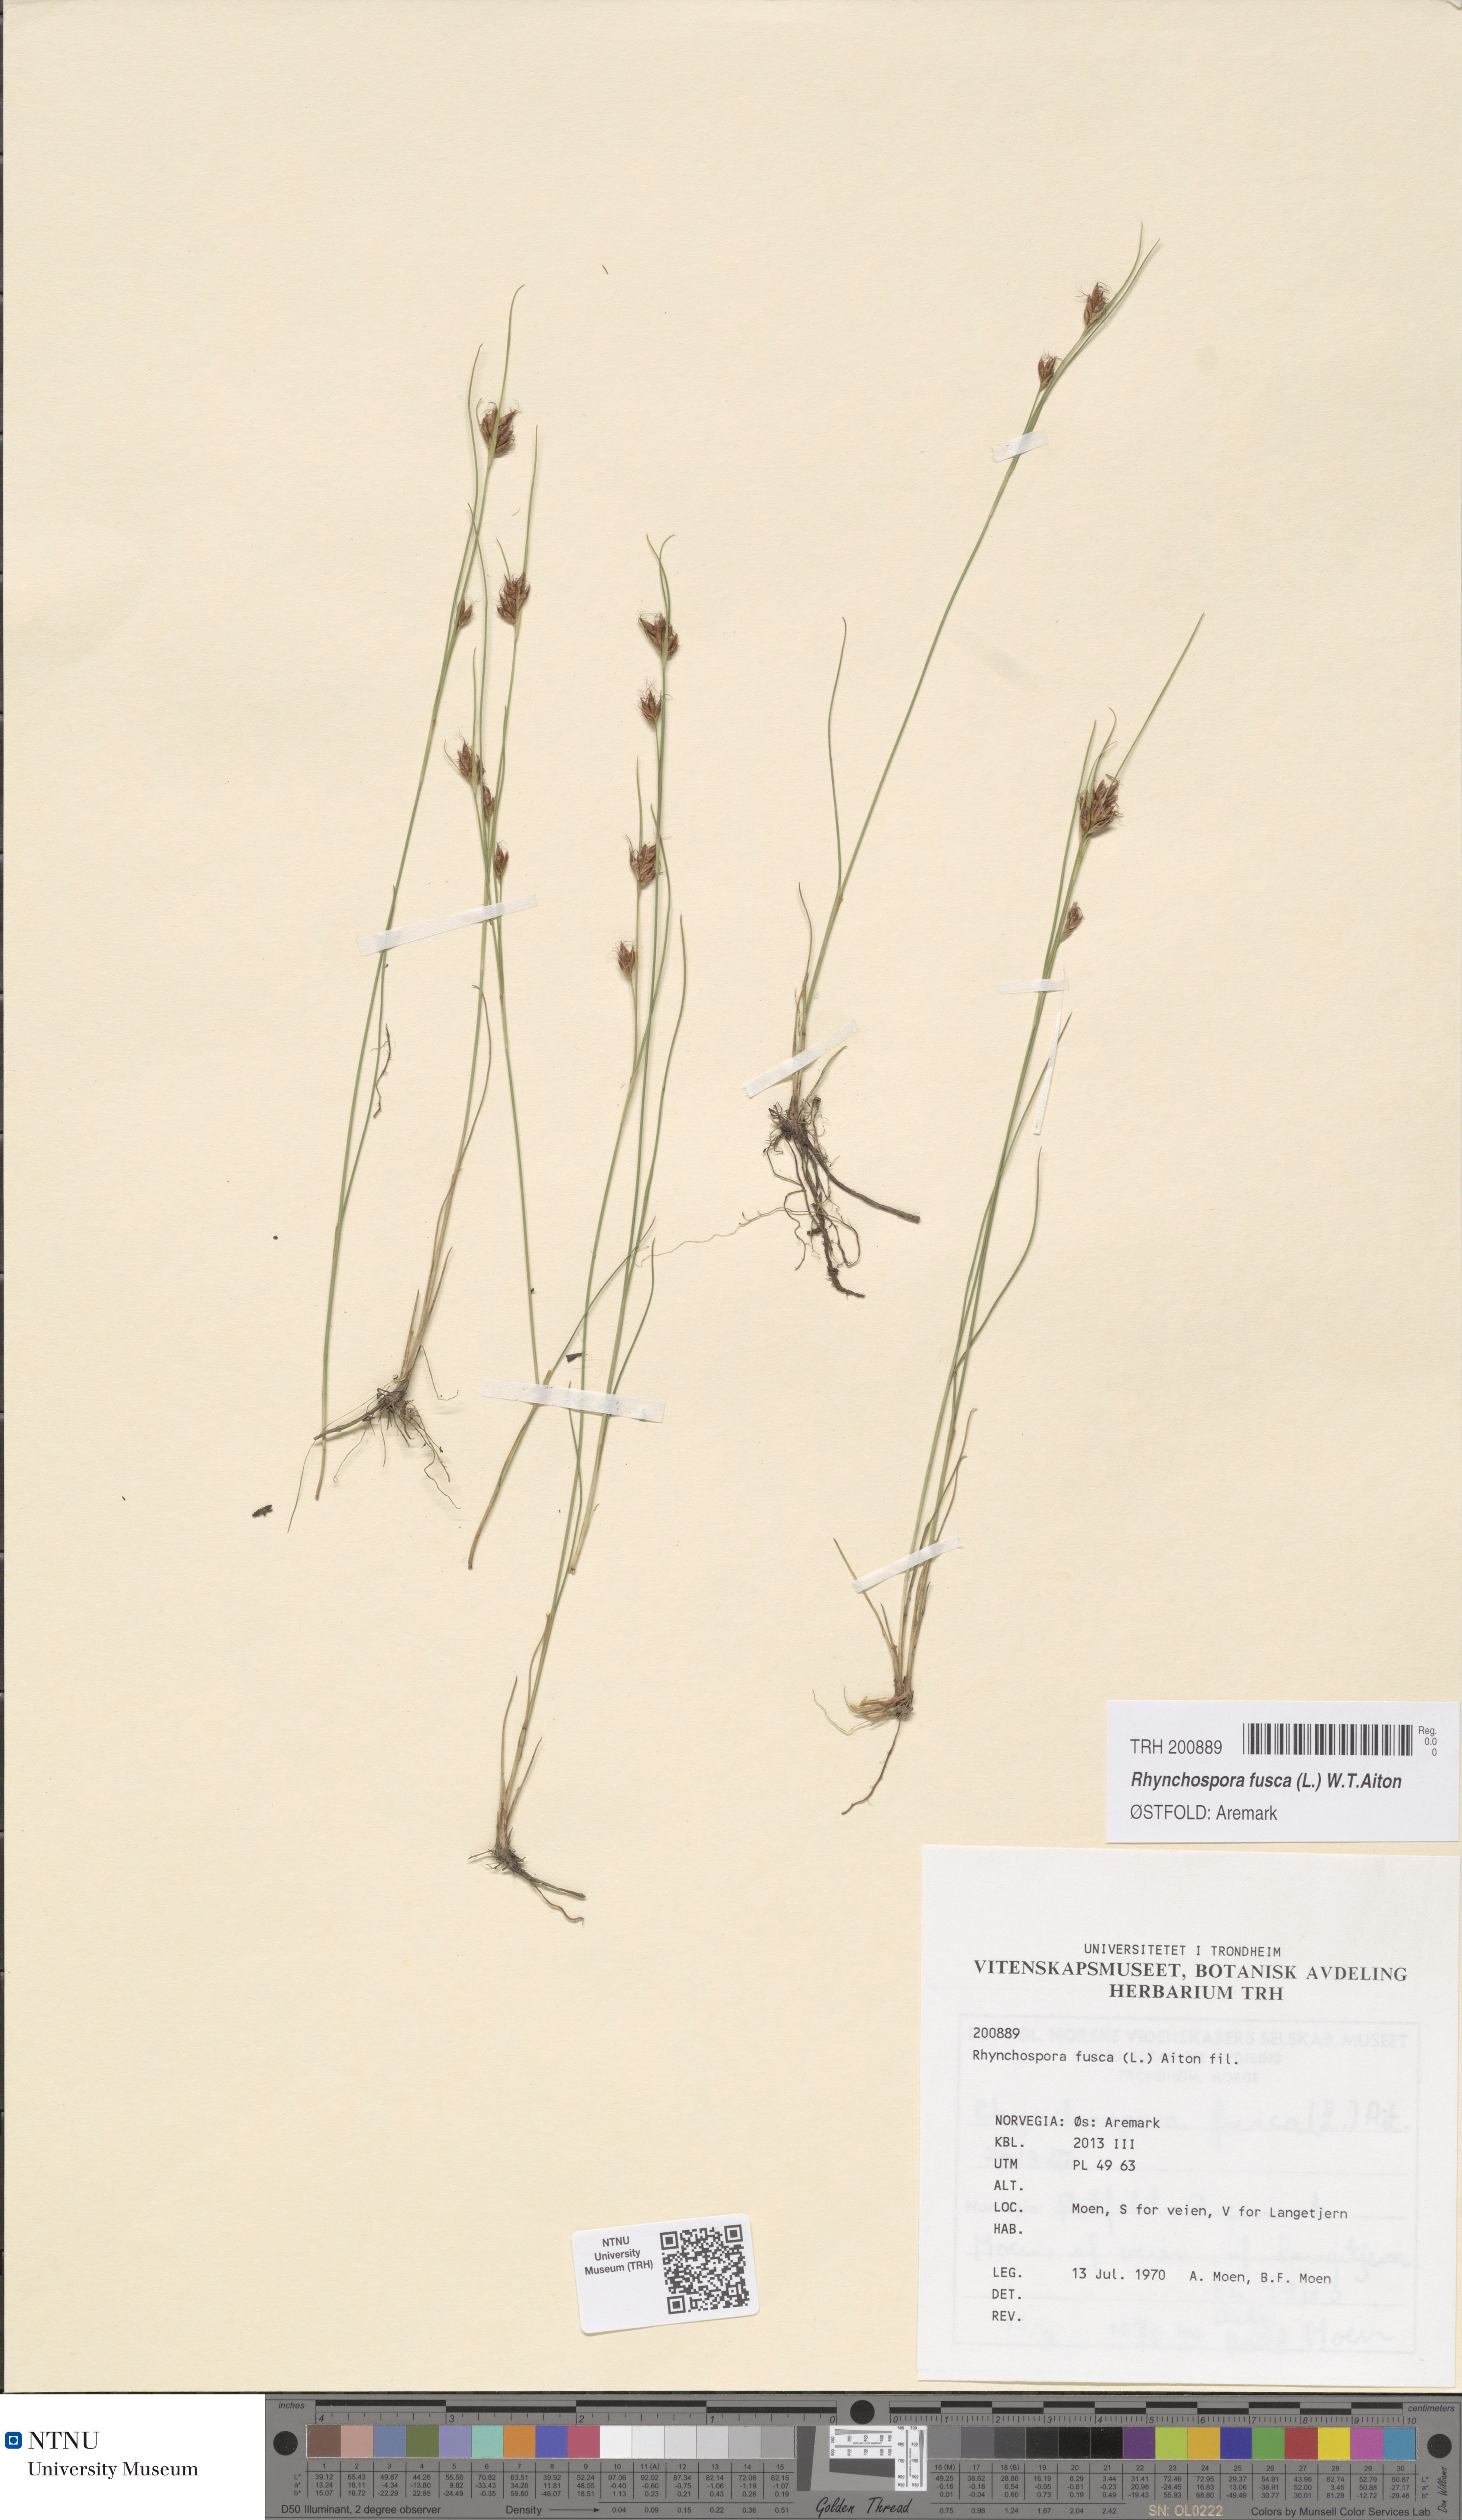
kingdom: Plantae
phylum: Tracheophyta
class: Liliopsida
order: Poales
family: Cyperaceae
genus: Rhynchospora
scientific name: Rhynchospora fusca
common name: Brown beak-sedge
